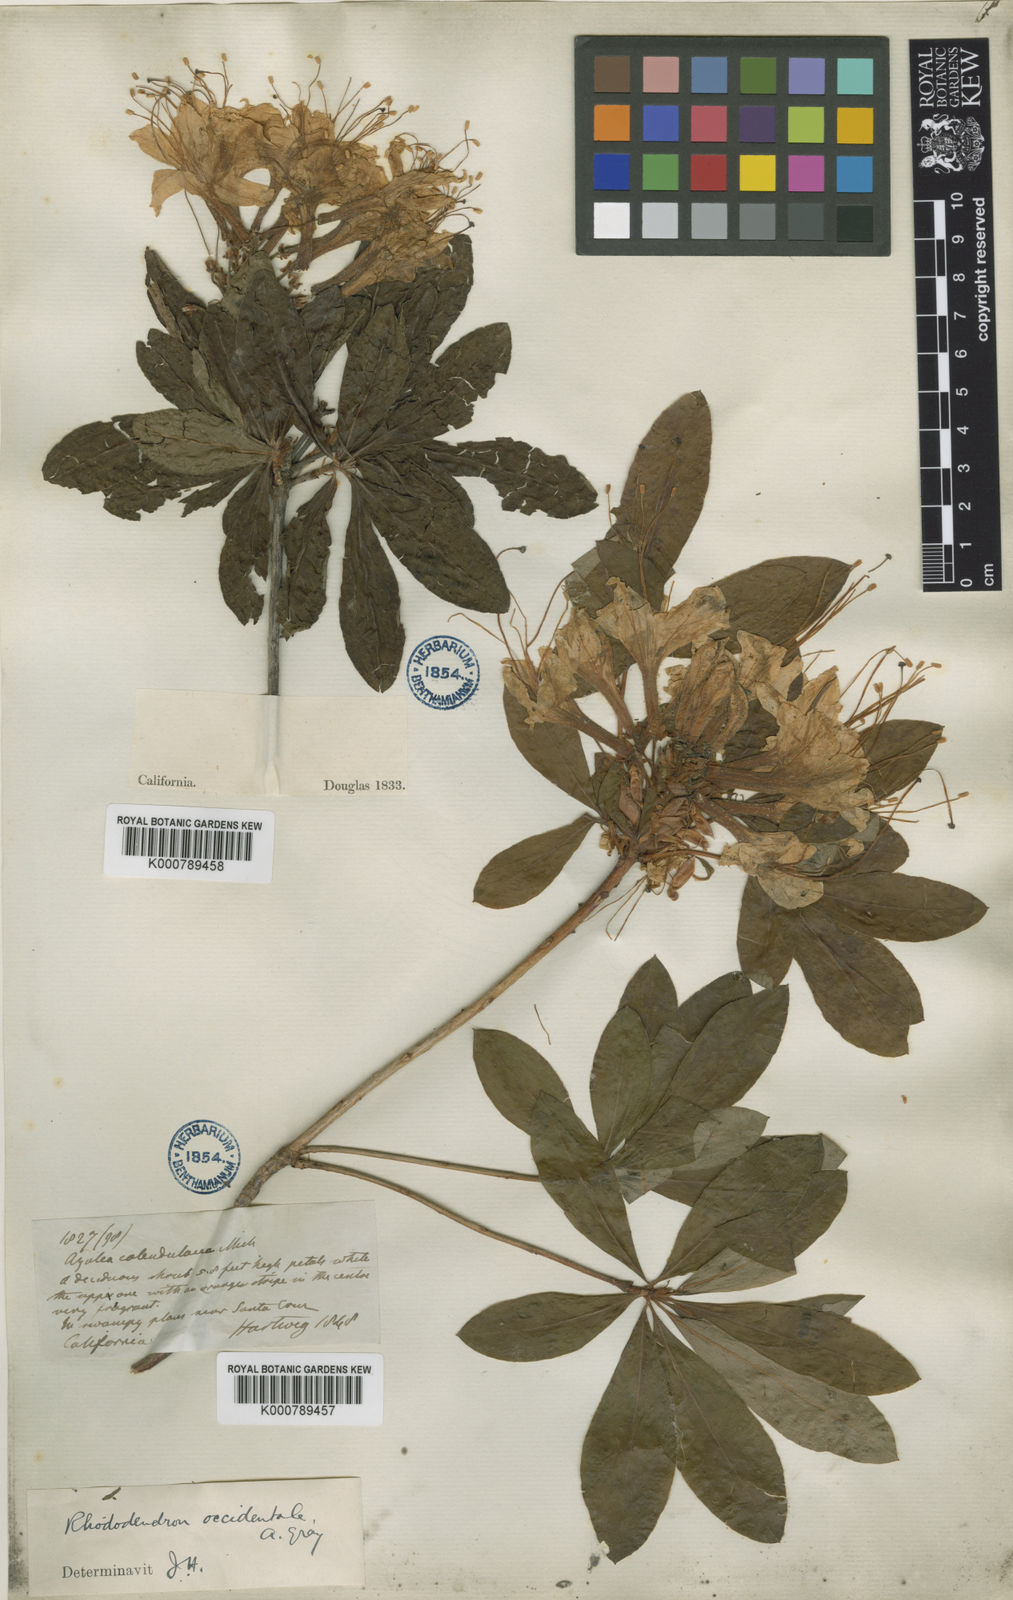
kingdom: Plantae
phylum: Tracheophyta
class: Magnoliopsida
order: Ericales
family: Ericaceae
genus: Rhododendron
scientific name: Rhododendron
